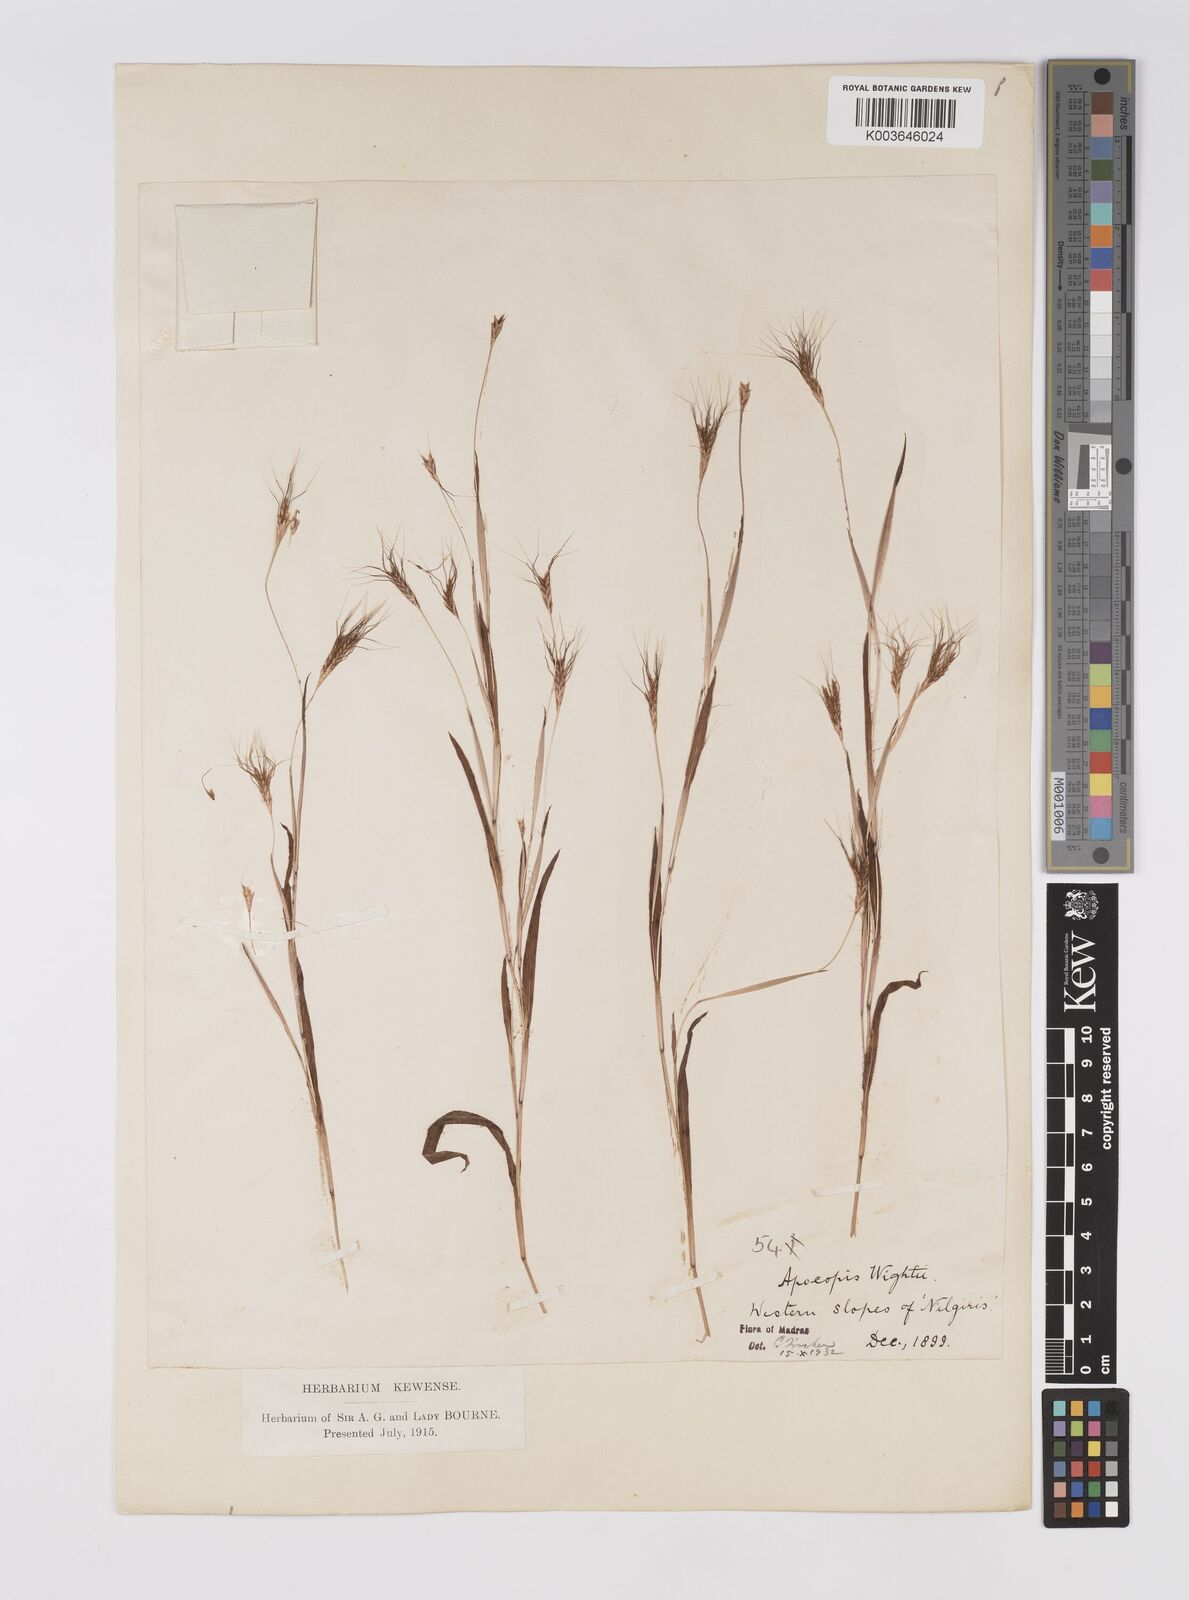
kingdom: Plantae
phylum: Tracheophyta
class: Liliopsida
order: Poales
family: Poaceae
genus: Apocopis
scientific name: Apocopis mangalorensis
